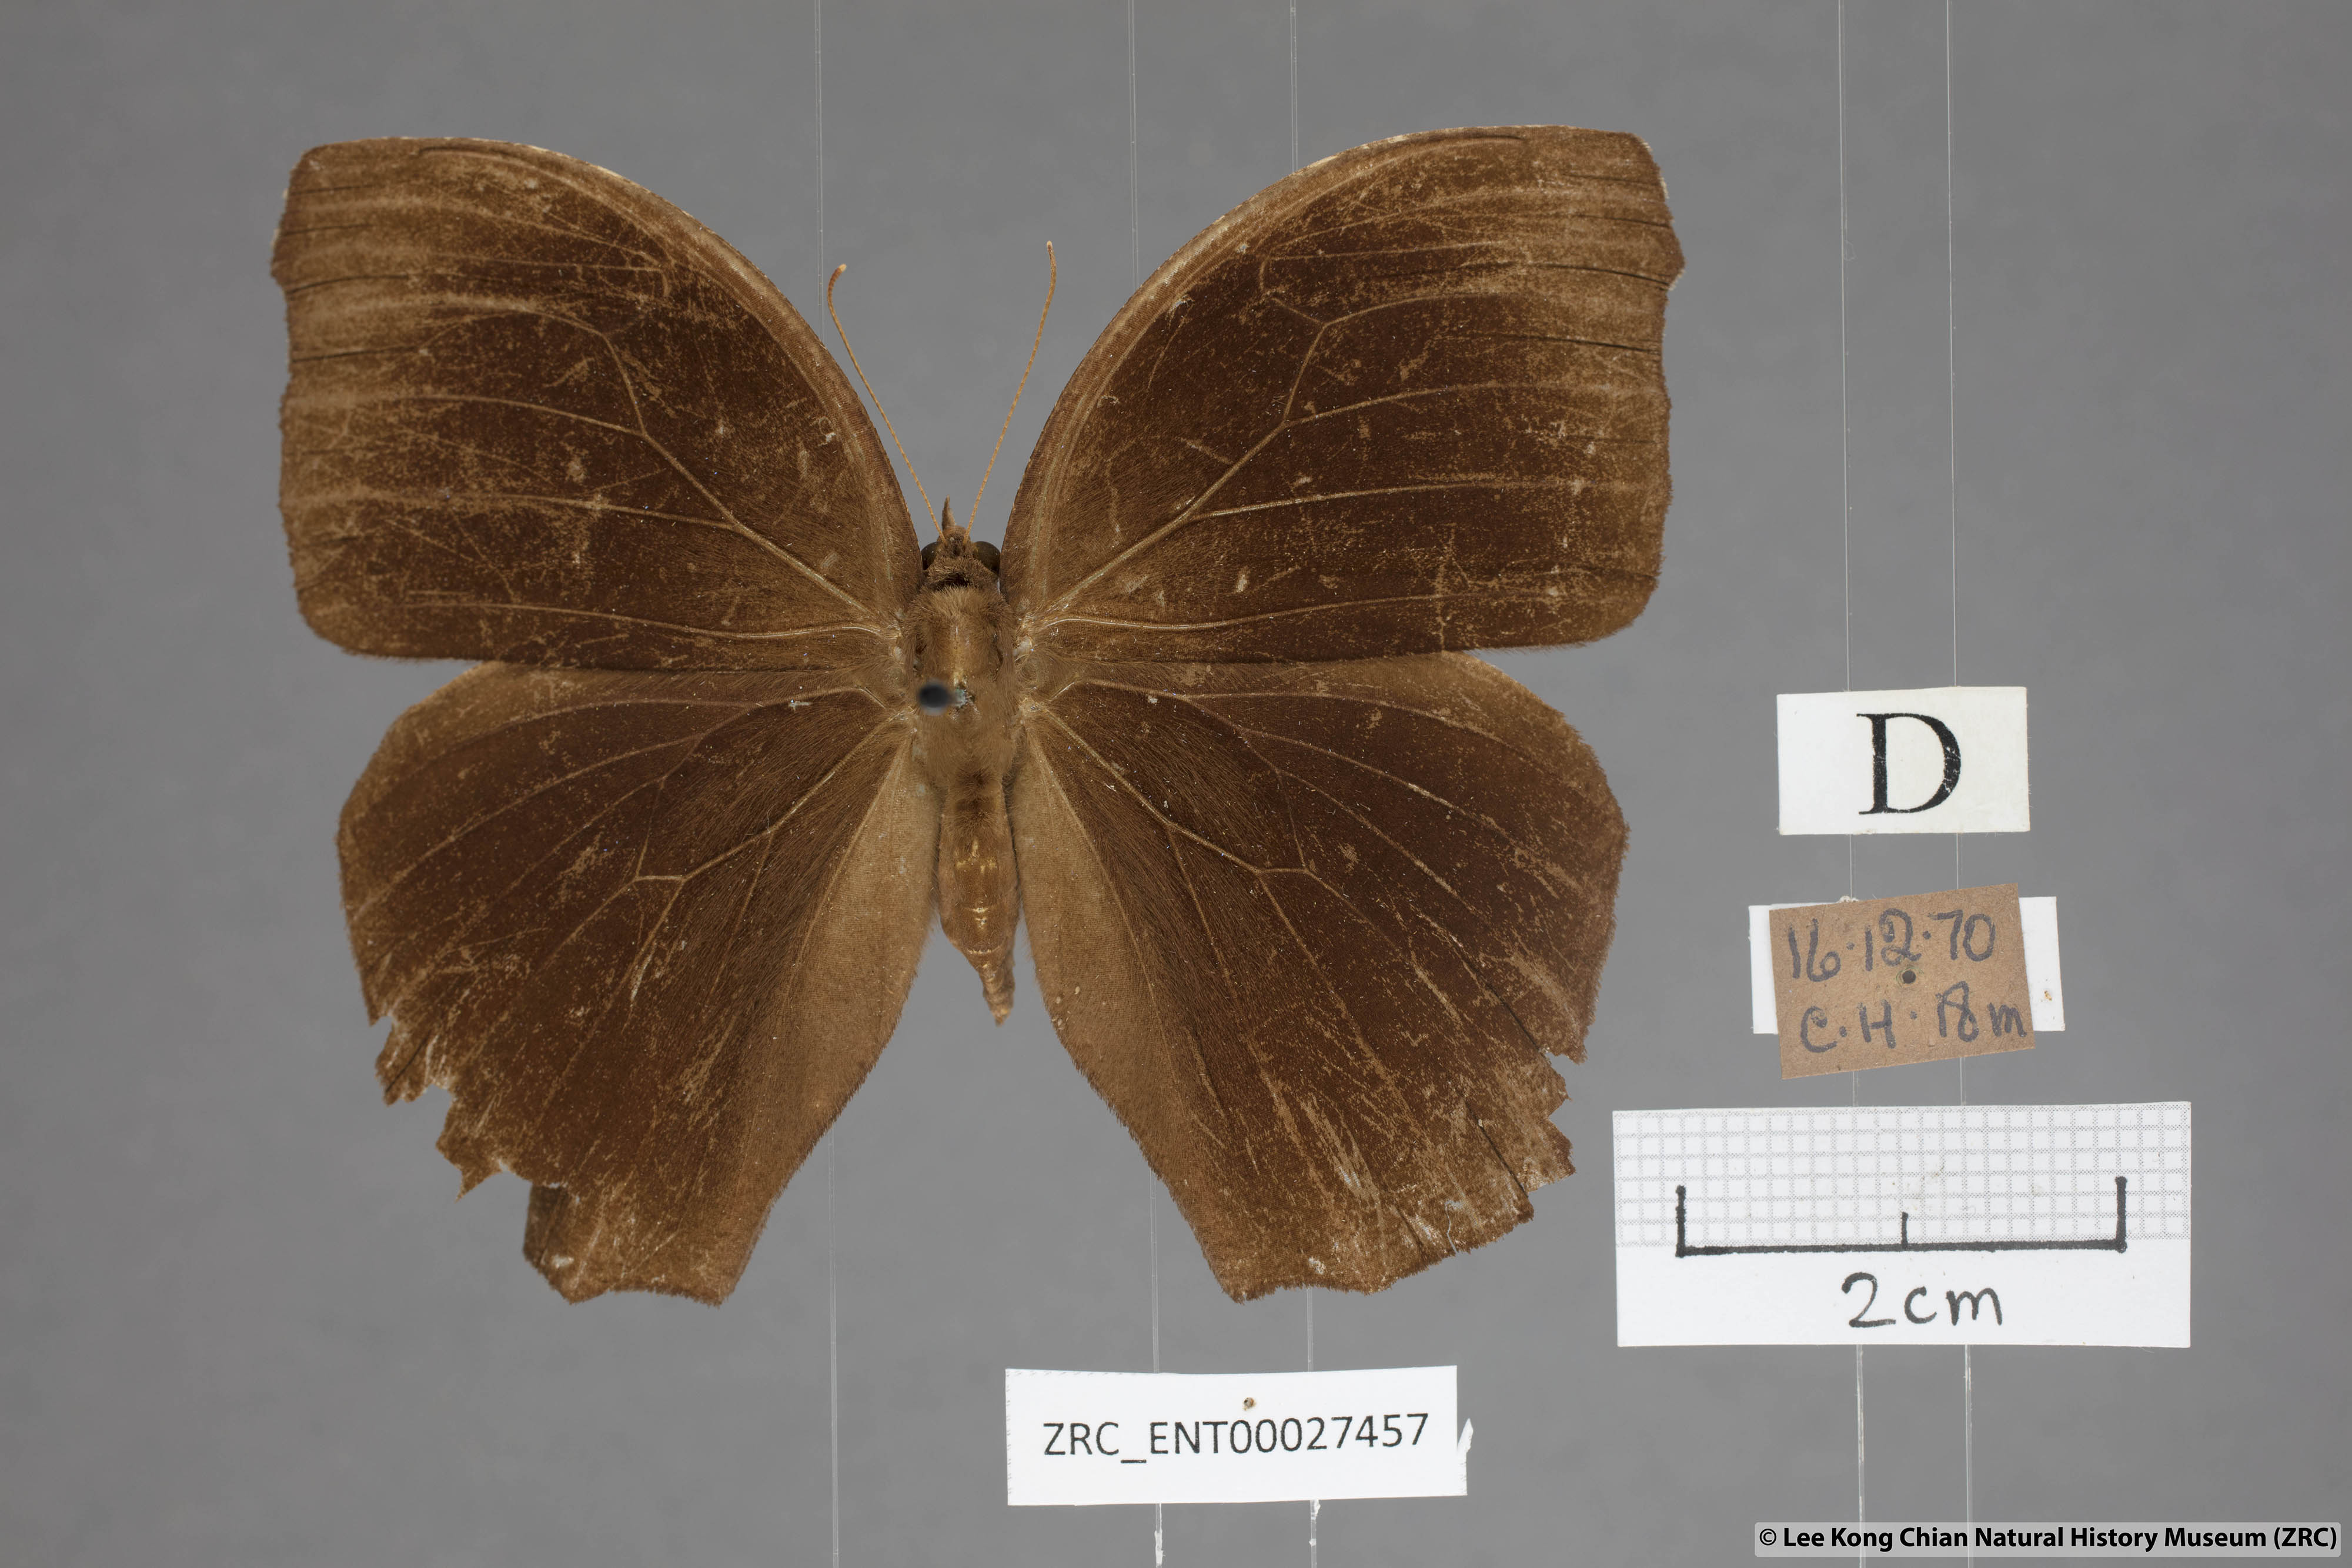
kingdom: Animalia
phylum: Arthropoda
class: Insecta
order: Lepidoptera
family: Nymphalidae
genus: Melanitis
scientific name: Melanitis phedima
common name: Dark evening brown
